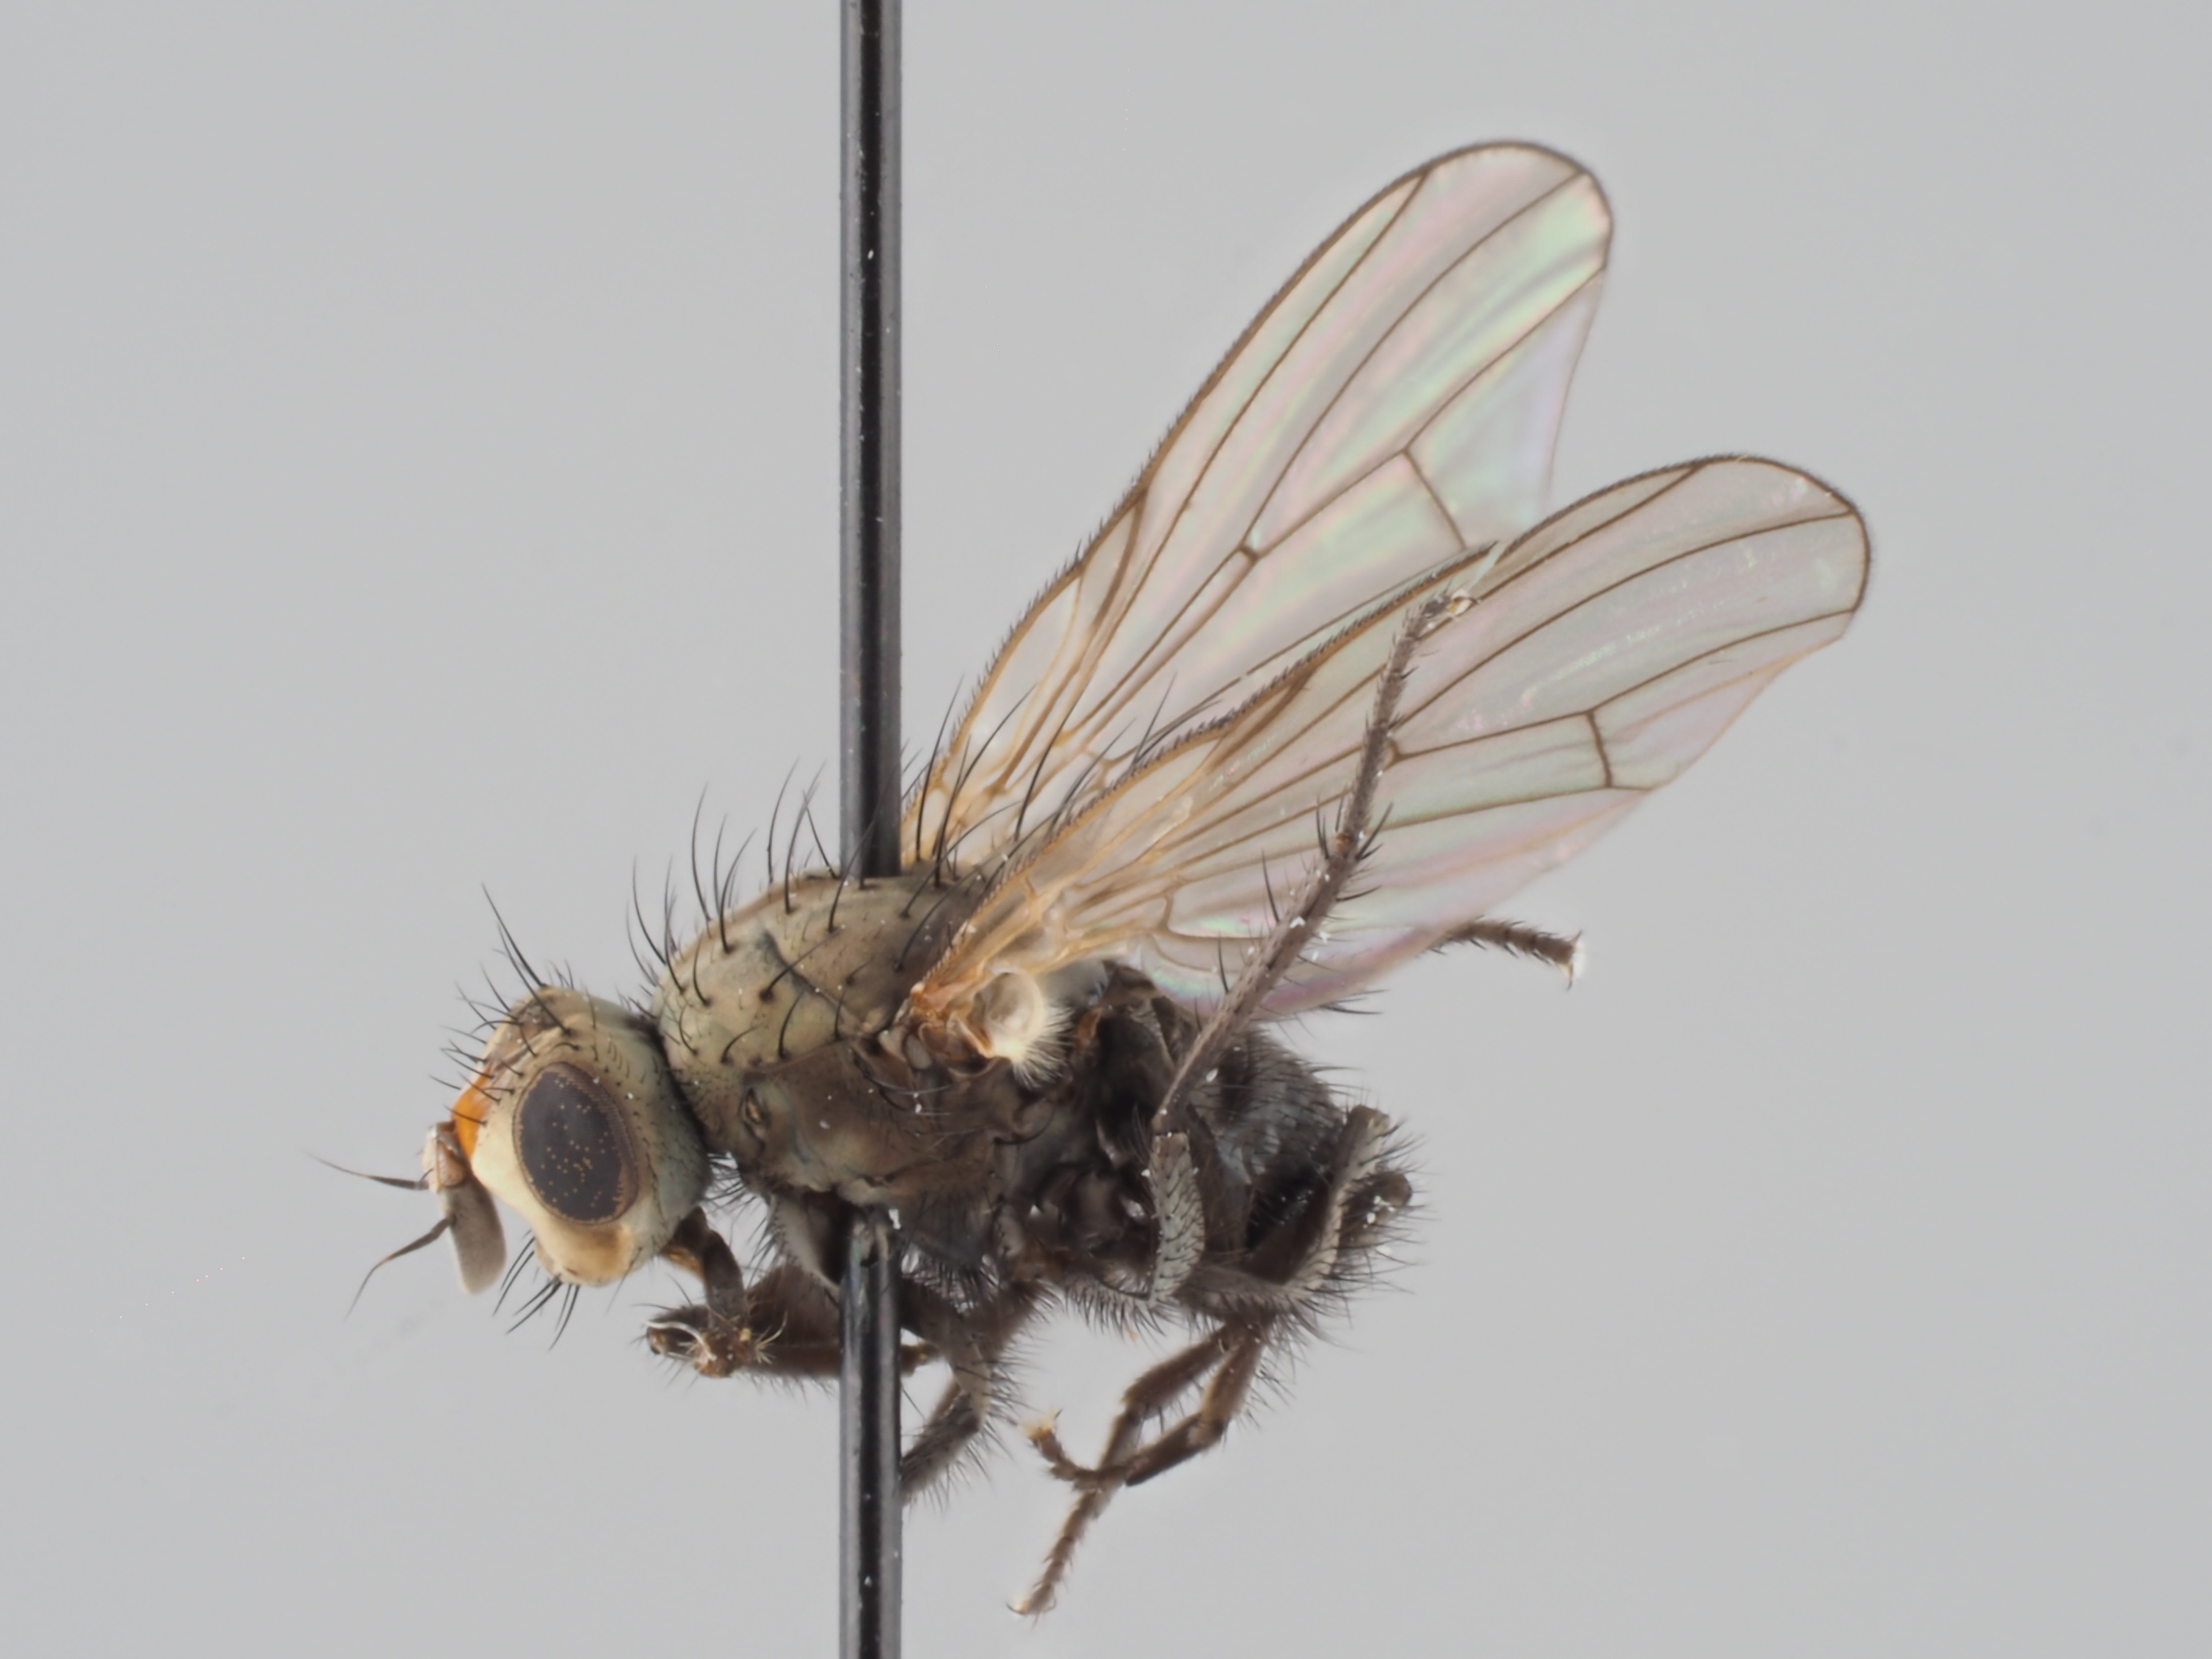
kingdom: Animalia
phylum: Arthropoda
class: Insecta
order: Diptera
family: Anthomyiidae
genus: Myopina
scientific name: Myopina myopina
